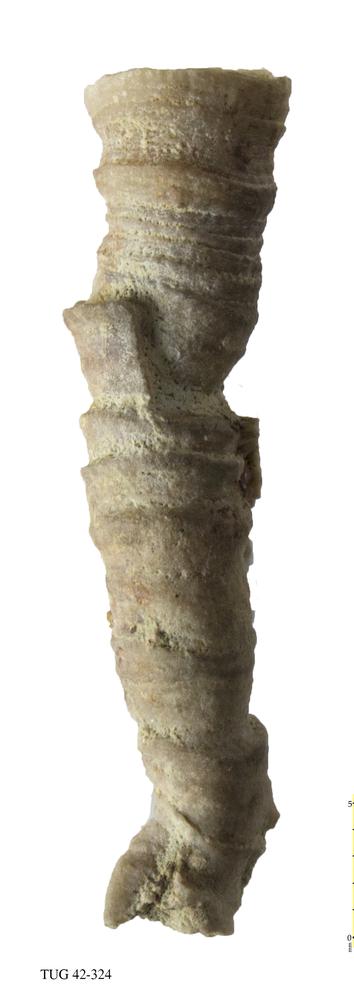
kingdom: Animalia
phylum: Cnidaria
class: Anthozoa
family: Cyathophyllidae
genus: Cyathophyllum
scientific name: Cyathophyllum
